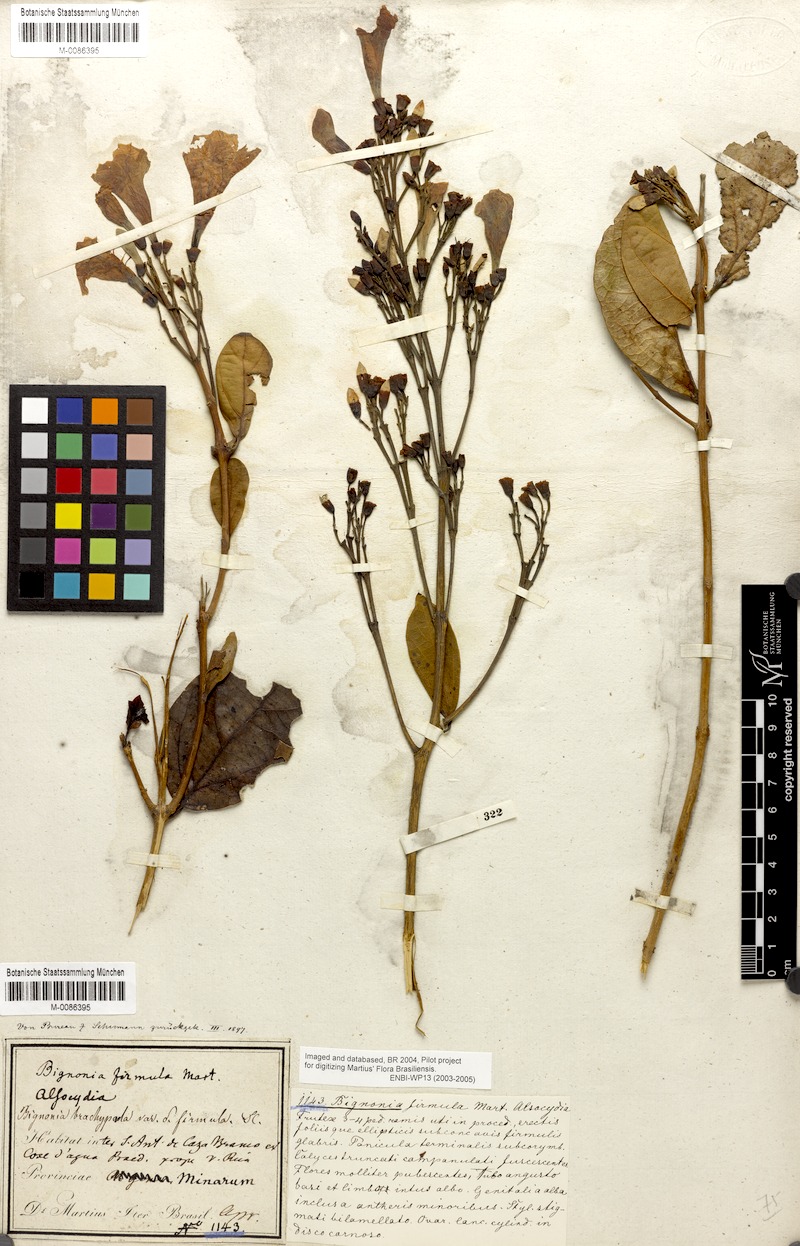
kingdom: Plantae
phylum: Tracheophyta
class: Magnoliopsida
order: Lamiales
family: Bignoniaceae
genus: Fridericia
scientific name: Fridericia platyphylla
